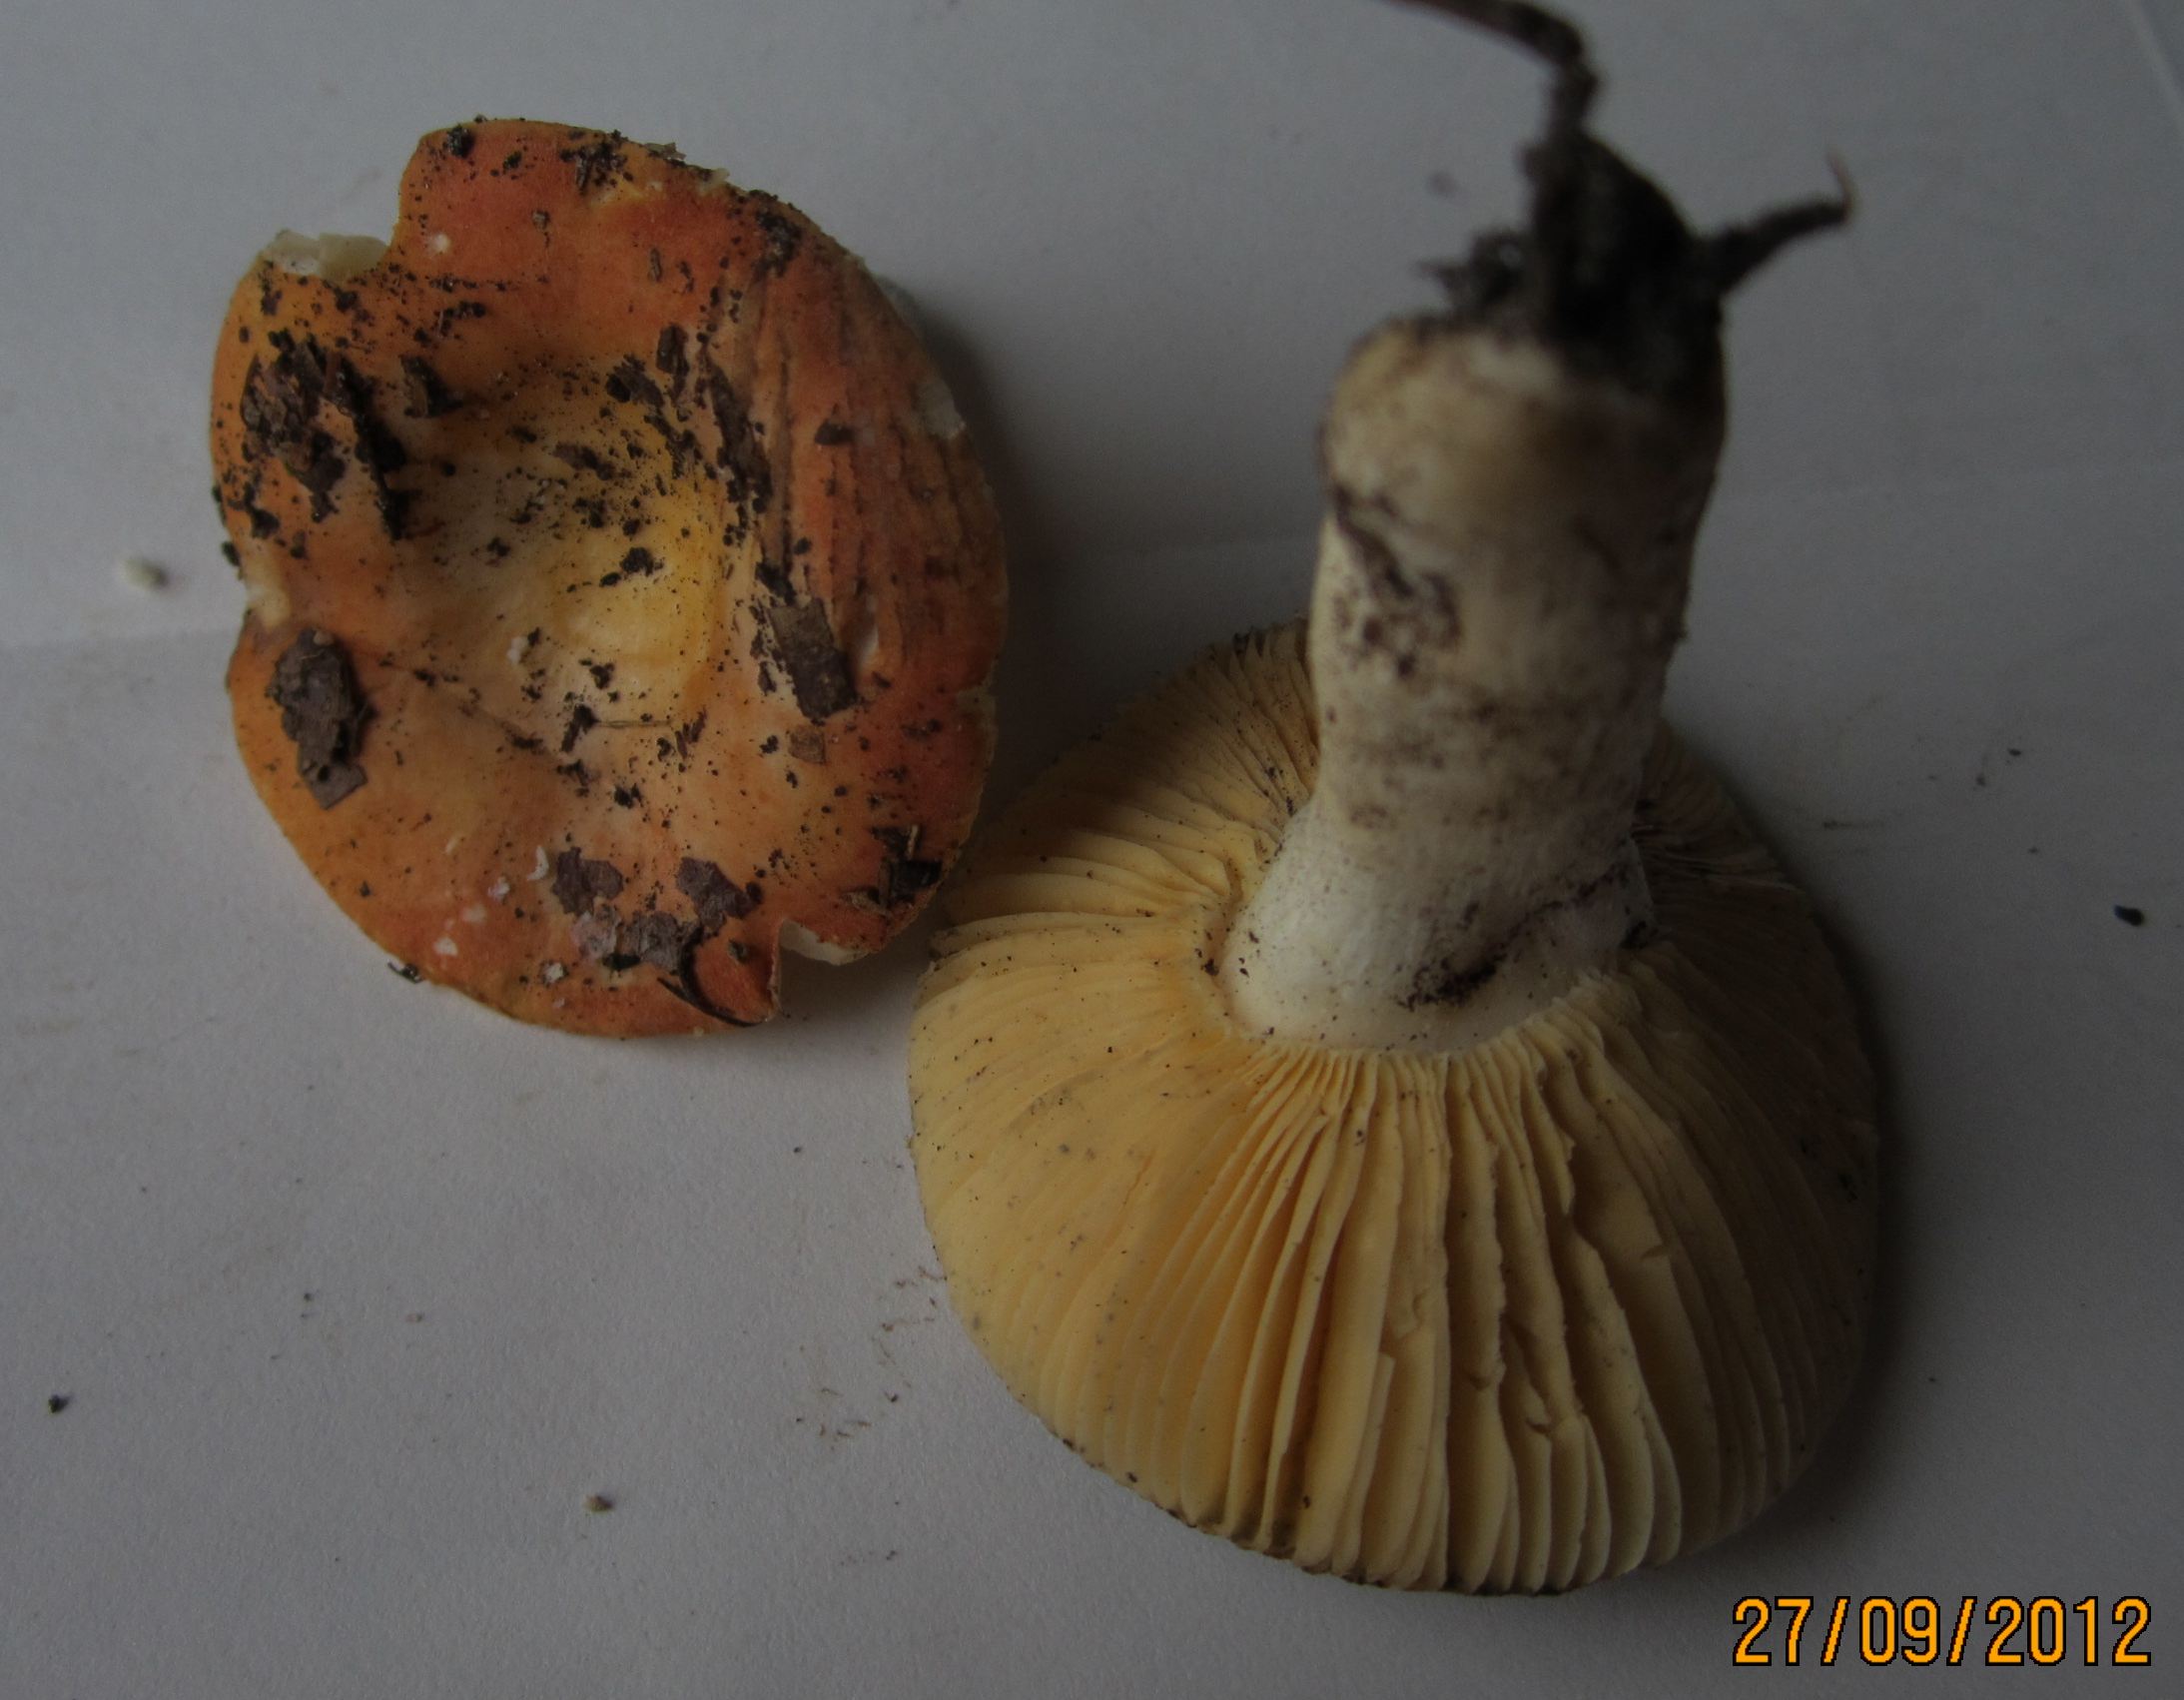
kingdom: Fungi
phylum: Basidiomycota
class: Agaricomycetes
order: Russulales
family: Russulaceae
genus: Russula
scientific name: Russula risigallina
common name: abrikos-skørhat
